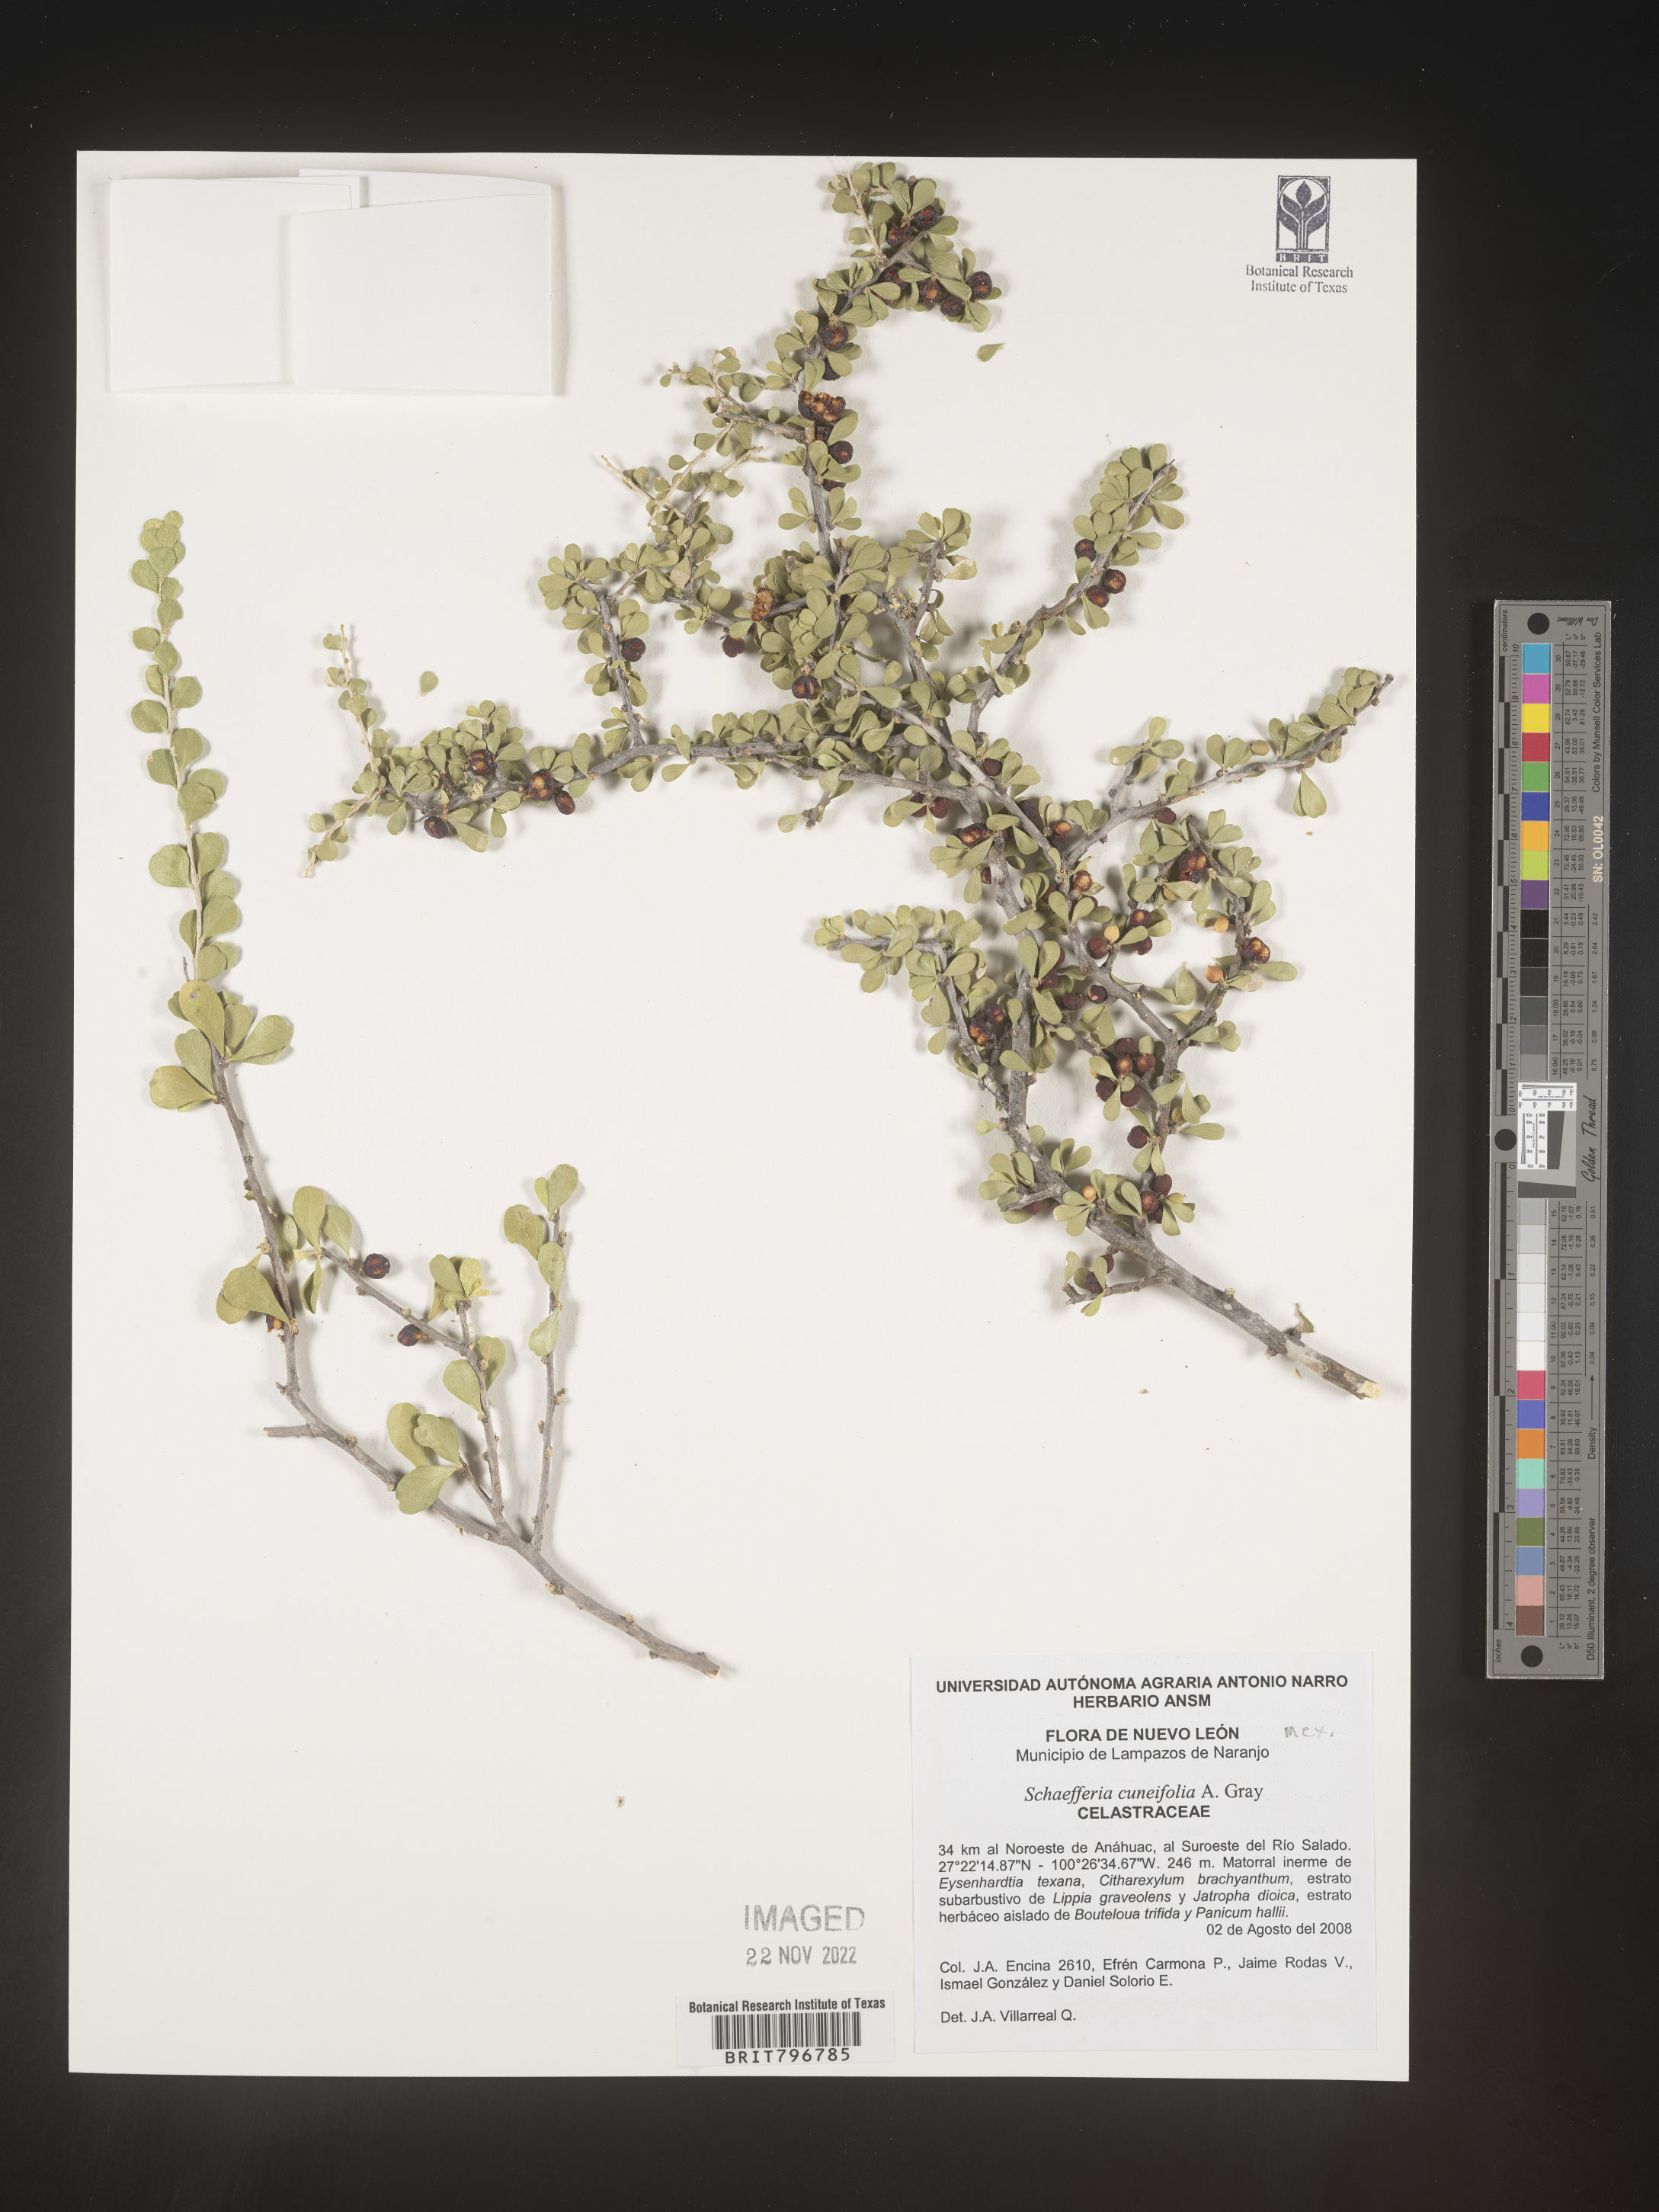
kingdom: Plantae
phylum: Tracheophyta
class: Magnoliopsida
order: Celastrales
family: Celastraceae
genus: Schaefferia
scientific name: Schaefferia
